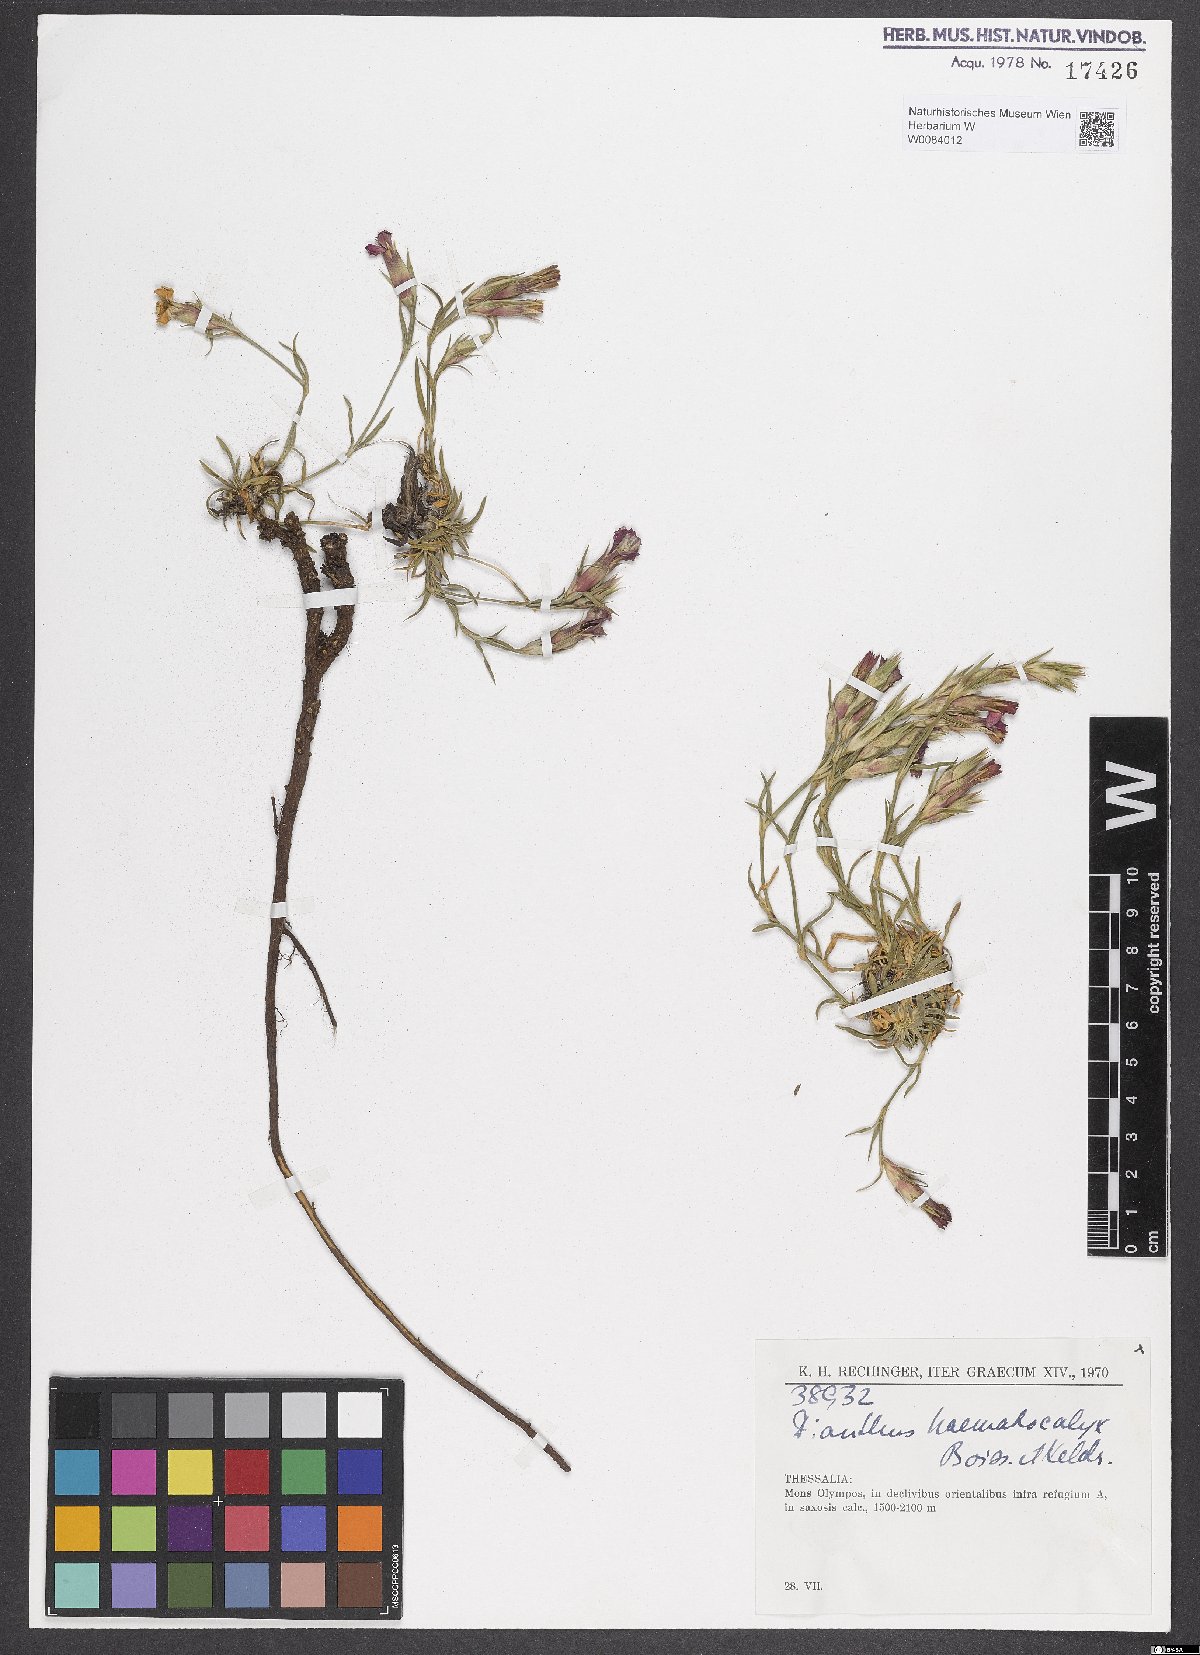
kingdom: Plantae
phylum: Tracheophyta
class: Magnoliopsida
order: Caryophyllales
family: Caryophyllaceae
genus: Dianthus
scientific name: Dianthus haematocalyx
